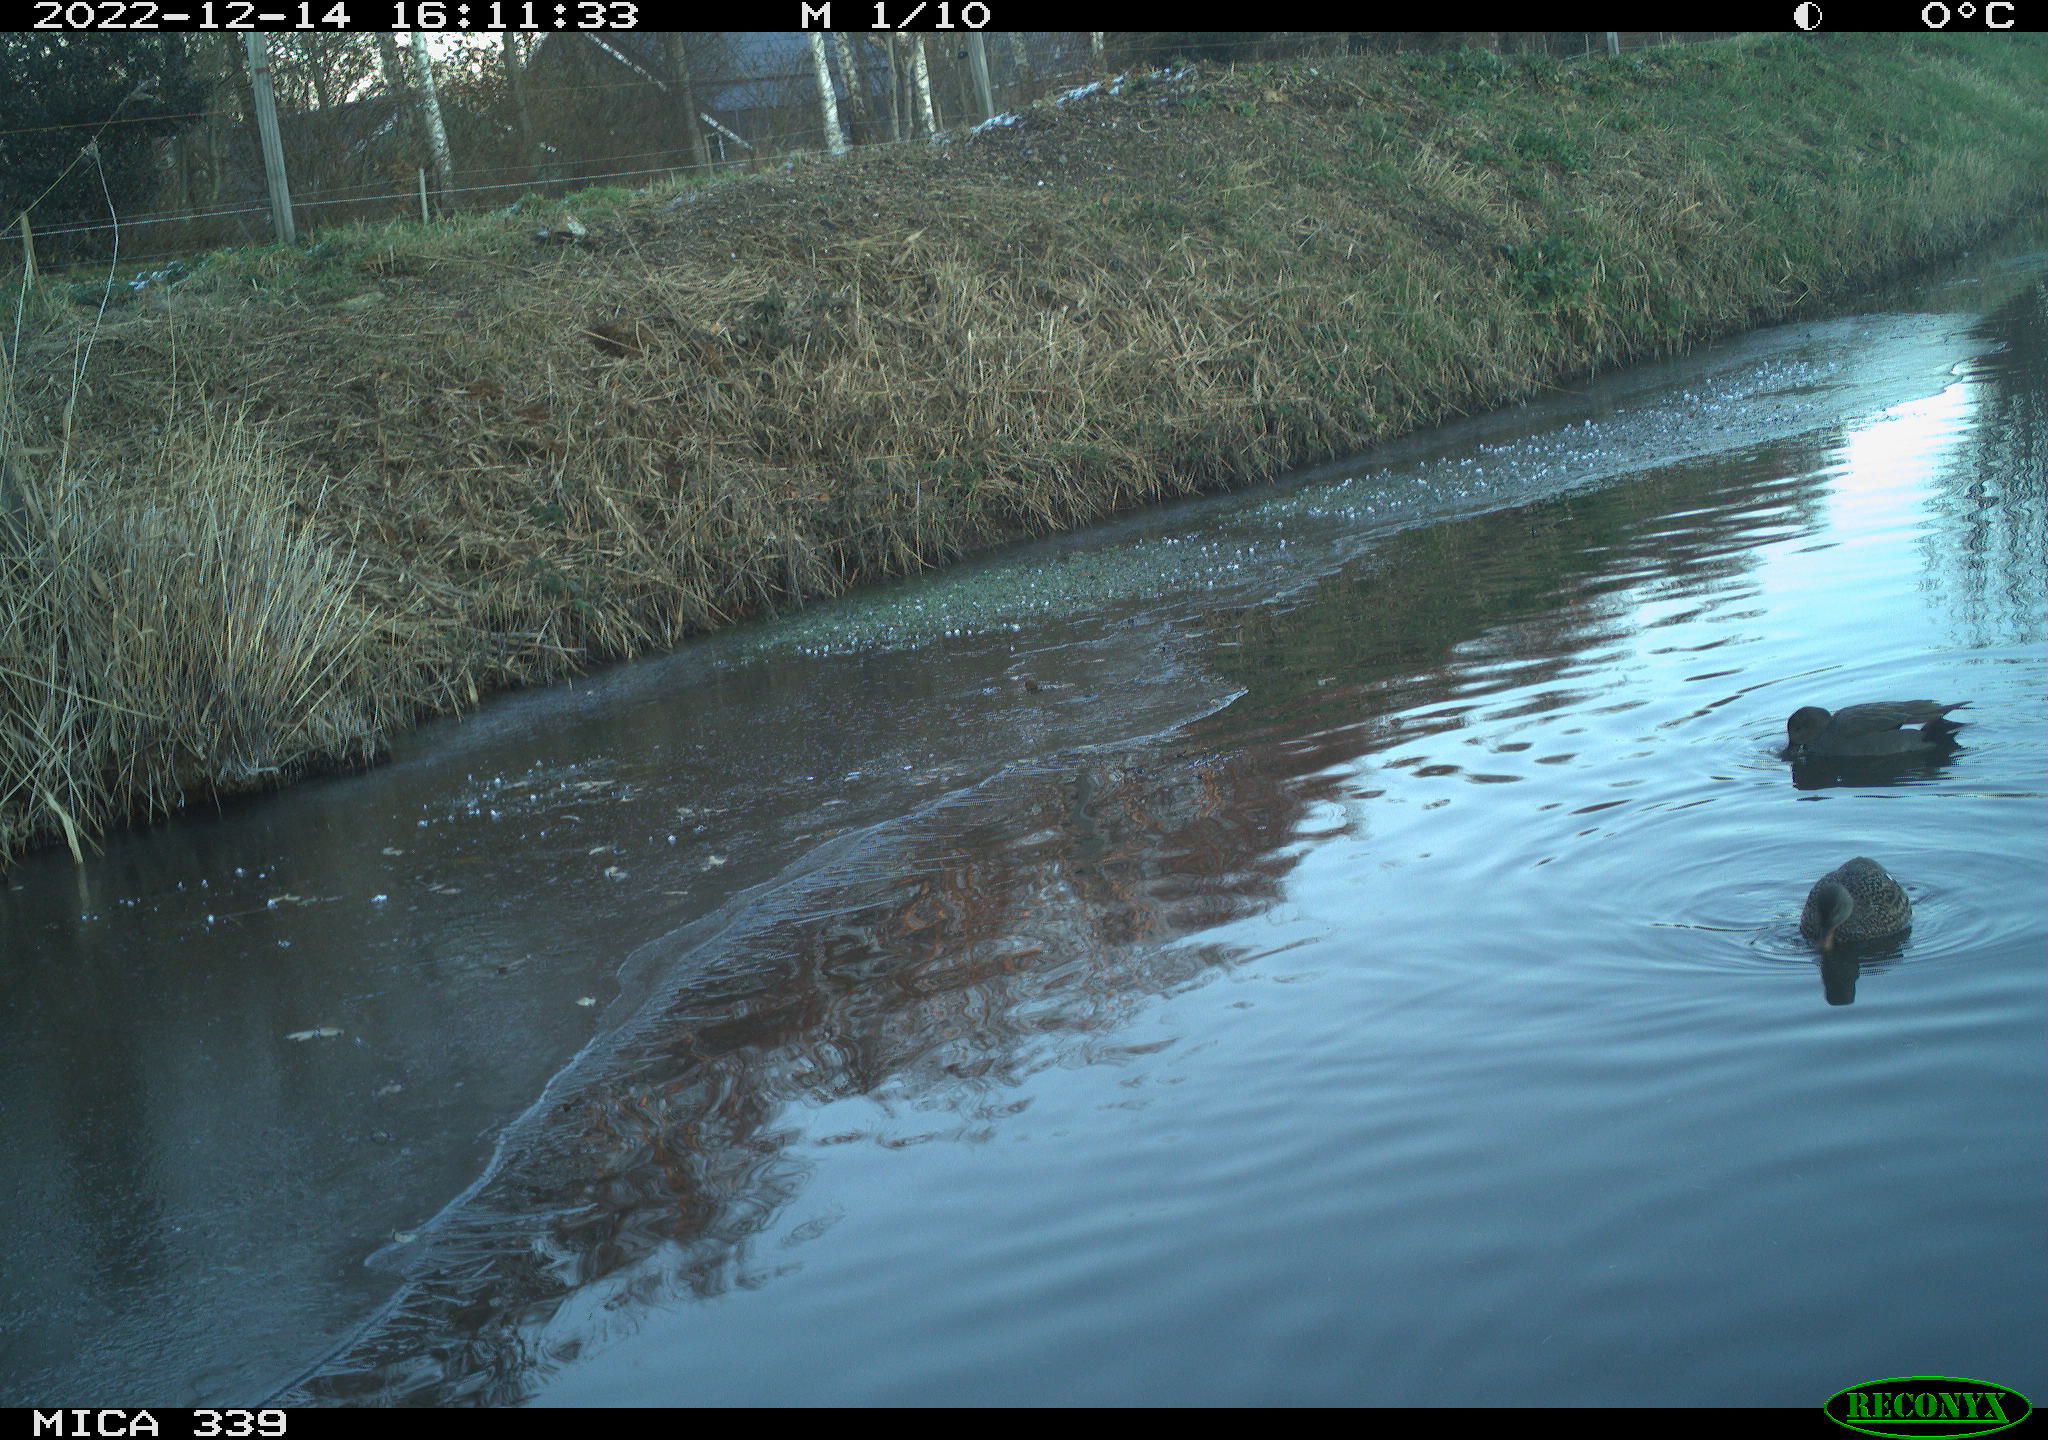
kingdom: Animalia
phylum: Chordata
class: Aves
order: Gruiformes
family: Rallidae
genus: Gallinula
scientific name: Gallinula chloropus
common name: Common moorhen
